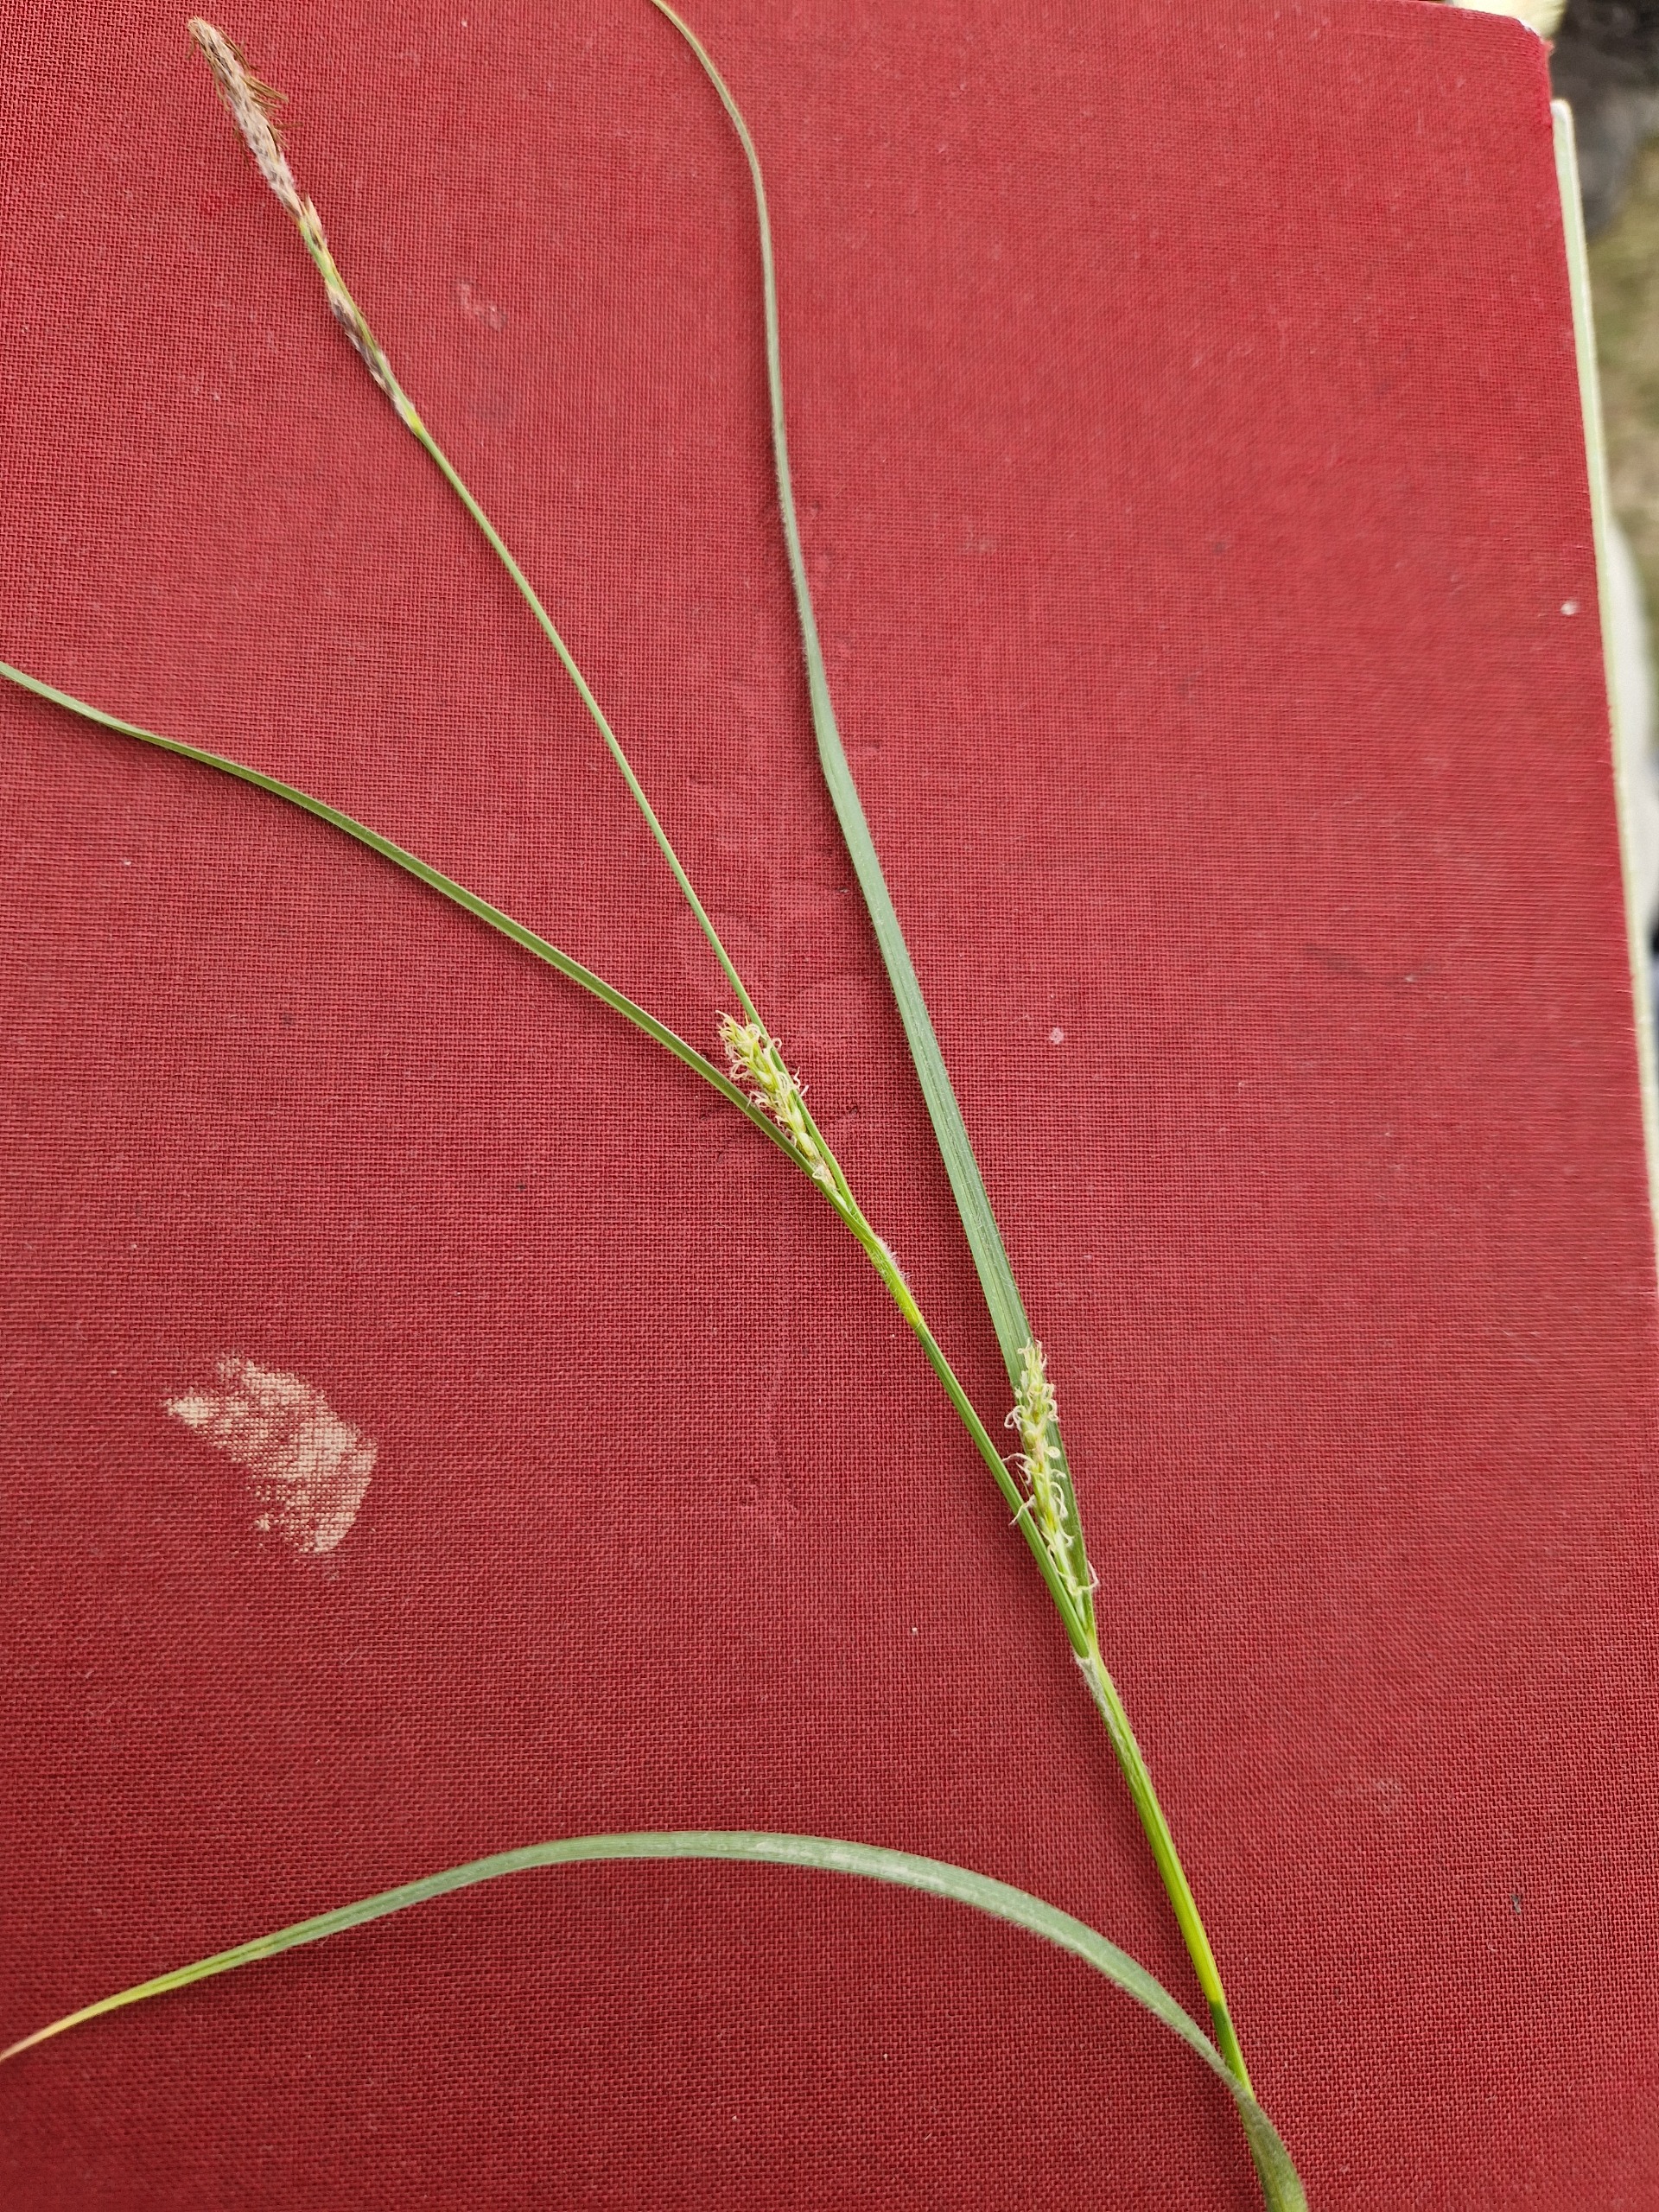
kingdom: Plantae
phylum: Tracheophyta
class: Liliopsida
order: Poales
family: Cyperaceae
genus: Carex
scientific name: Carex hirta
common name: Håret star
